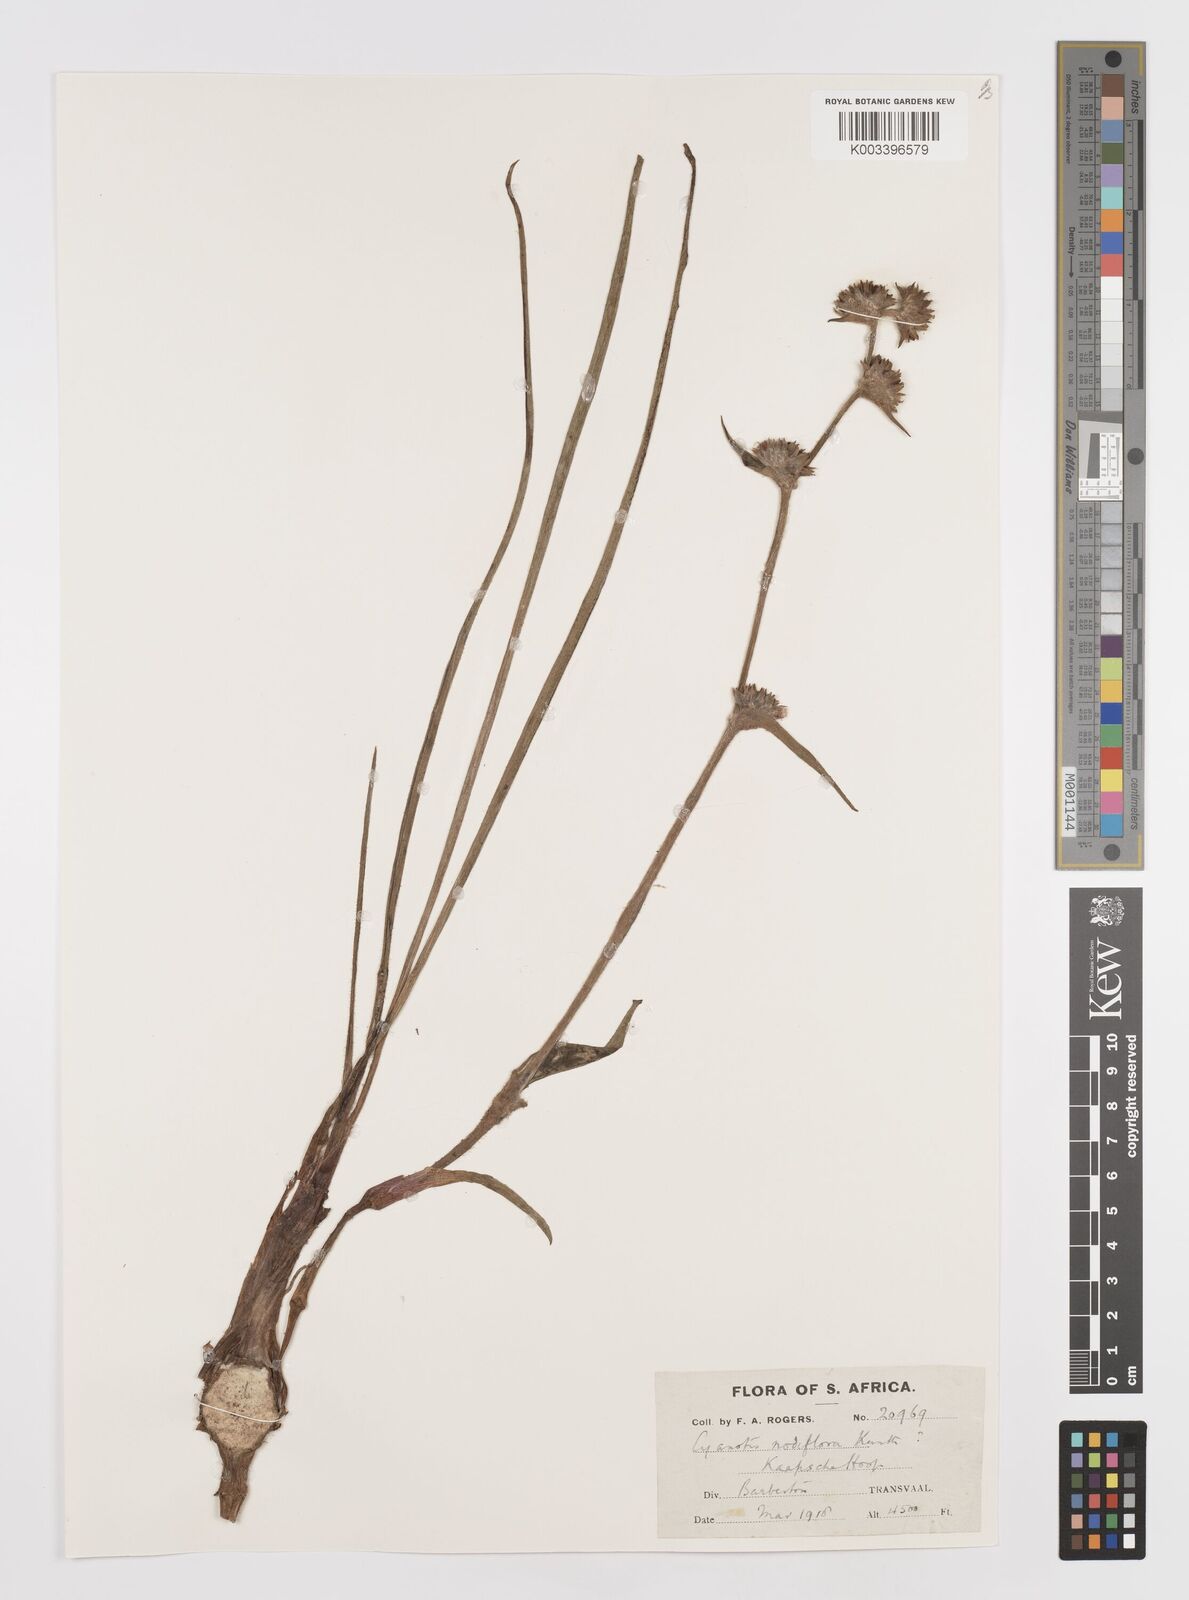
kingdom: Plantae
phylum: Tracheophyta
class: Liliopsida
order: Commelinales
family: Commelinaceae
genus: Cyanotis
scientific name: Cyanotis speciosa
